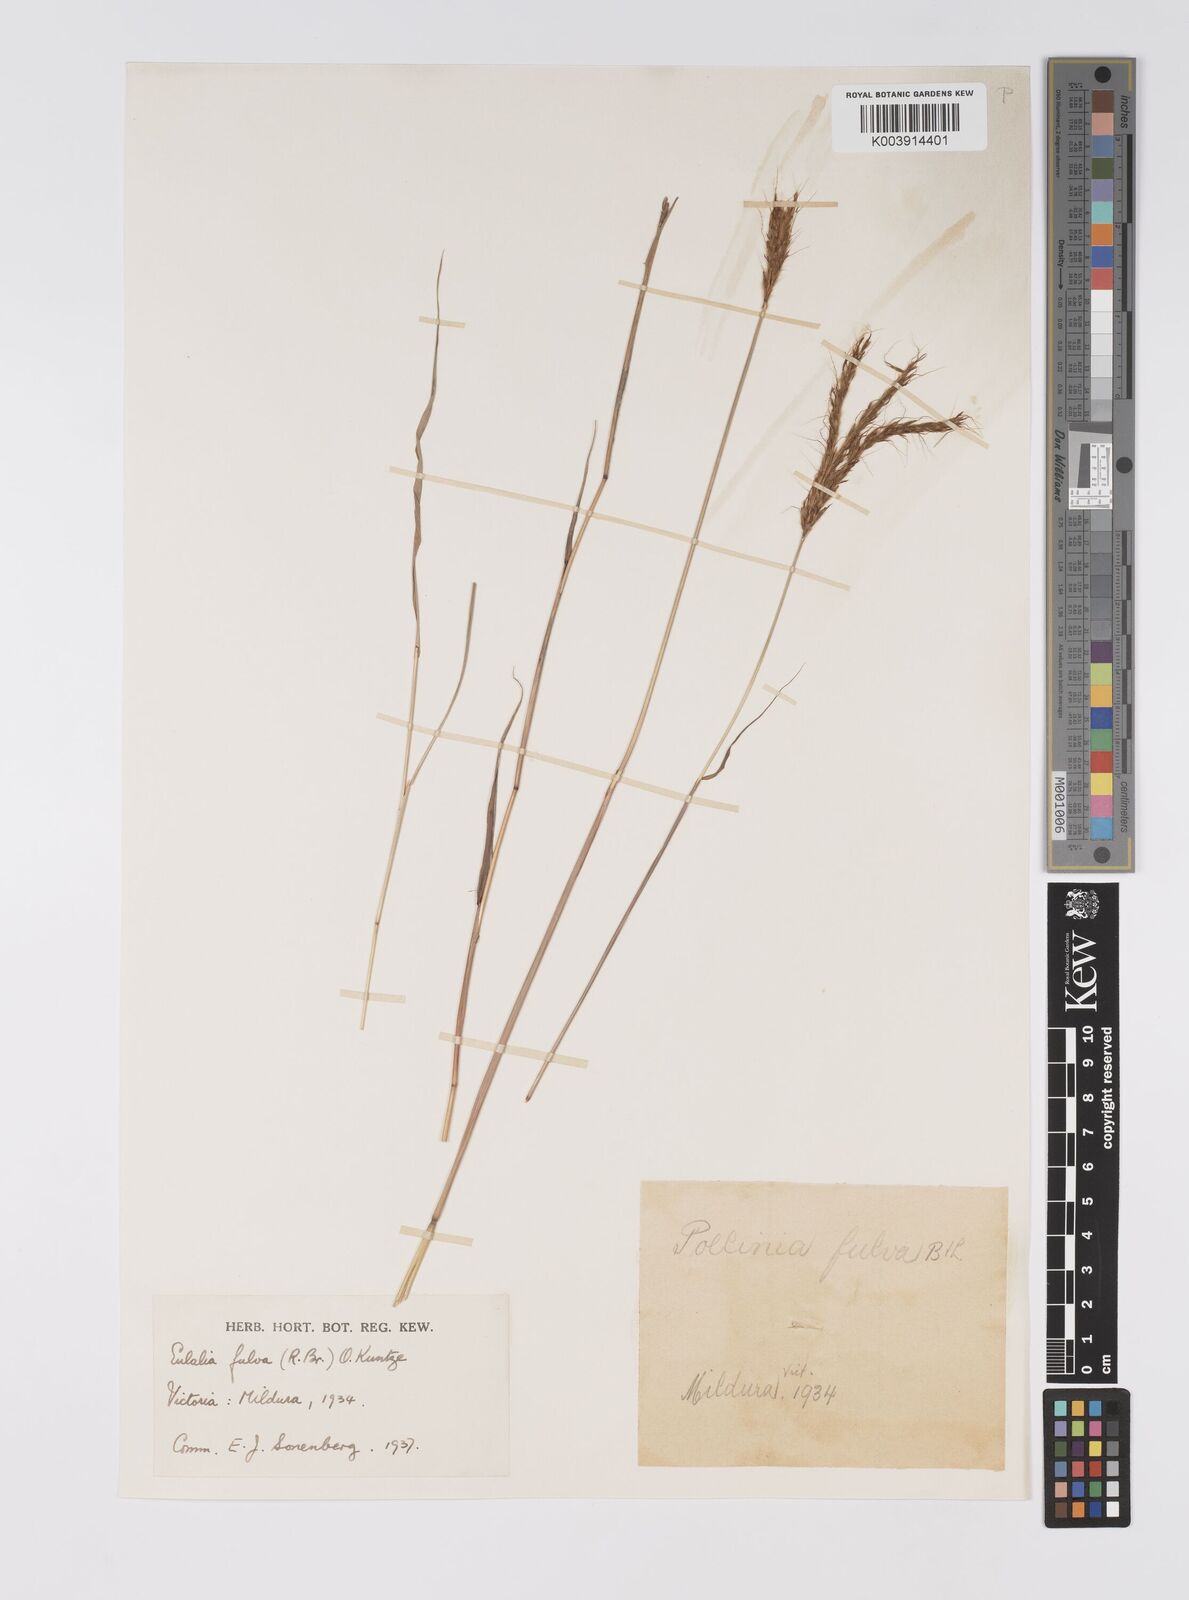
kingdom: Plantae
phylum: Tracheophyta
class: Liliopsida
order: Poales
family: Poaceae
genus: Eulalia
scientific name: Eulalia aurea
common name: Silky browntop
